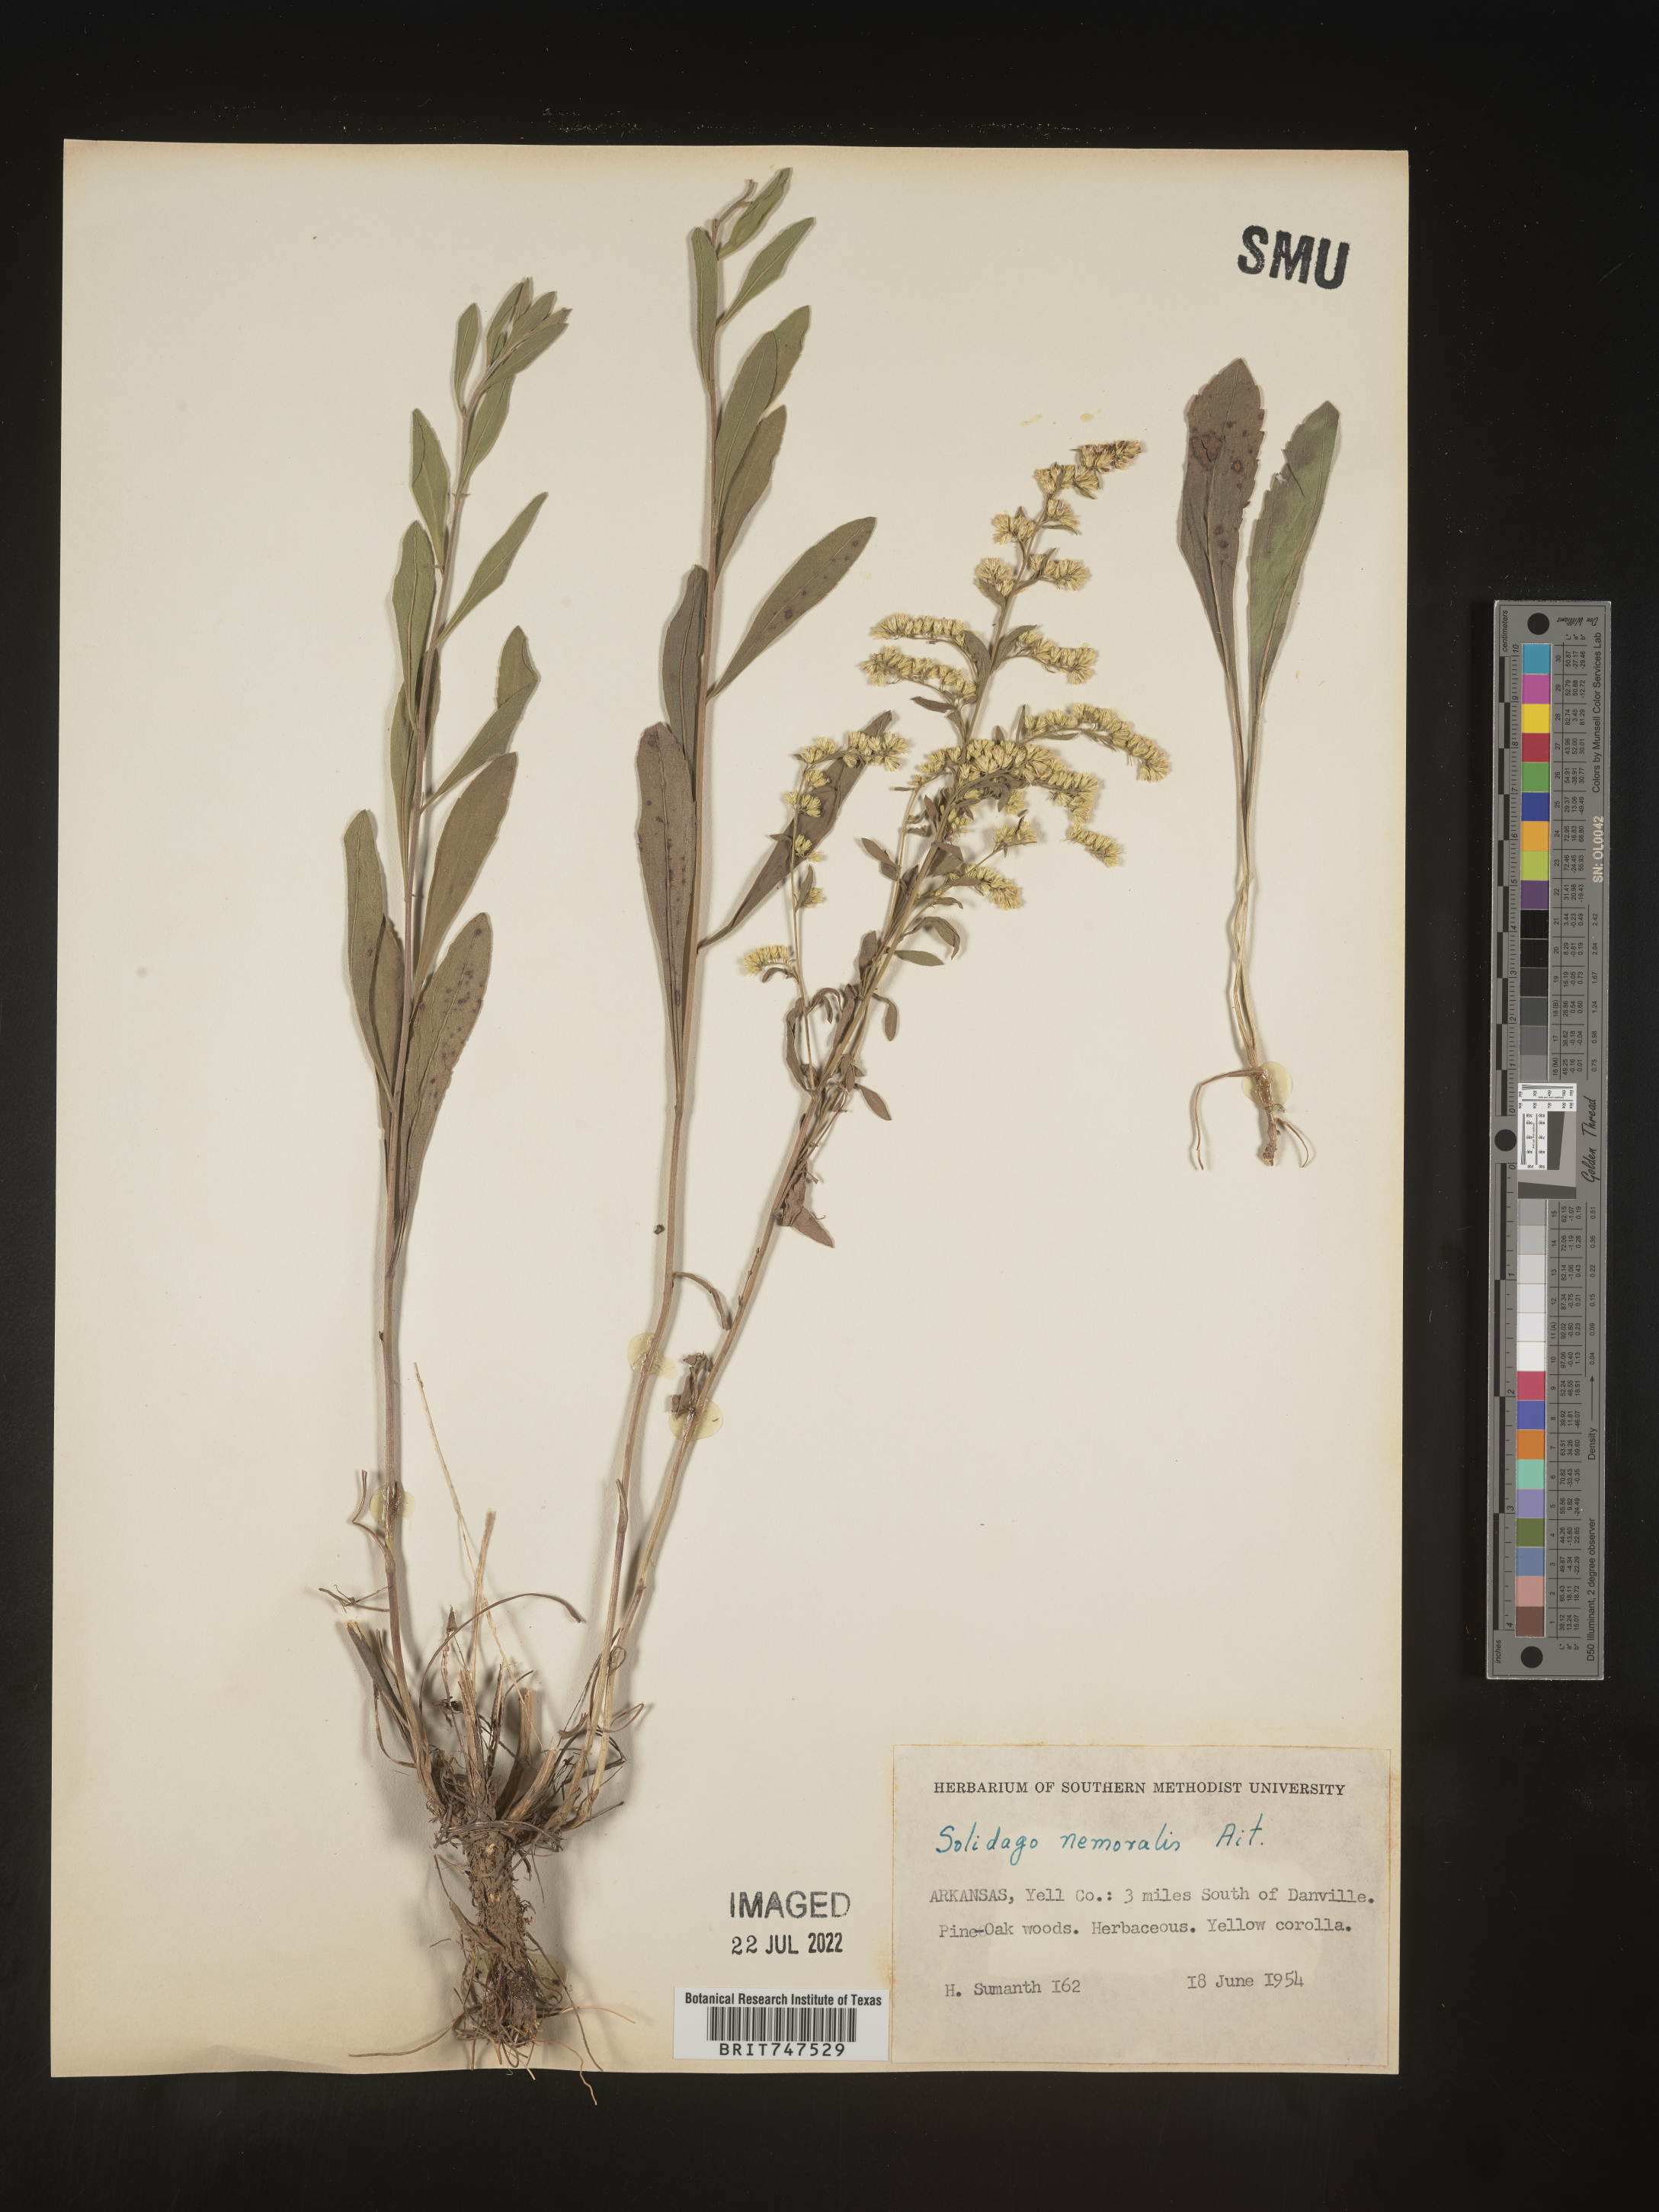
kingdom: Plantae
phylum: Tracheophyta
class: Magnoliopsida
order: Asterales
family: Asteraceae
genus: Solidago
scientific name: Solidago nemoralis
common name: Grey goldenrod
